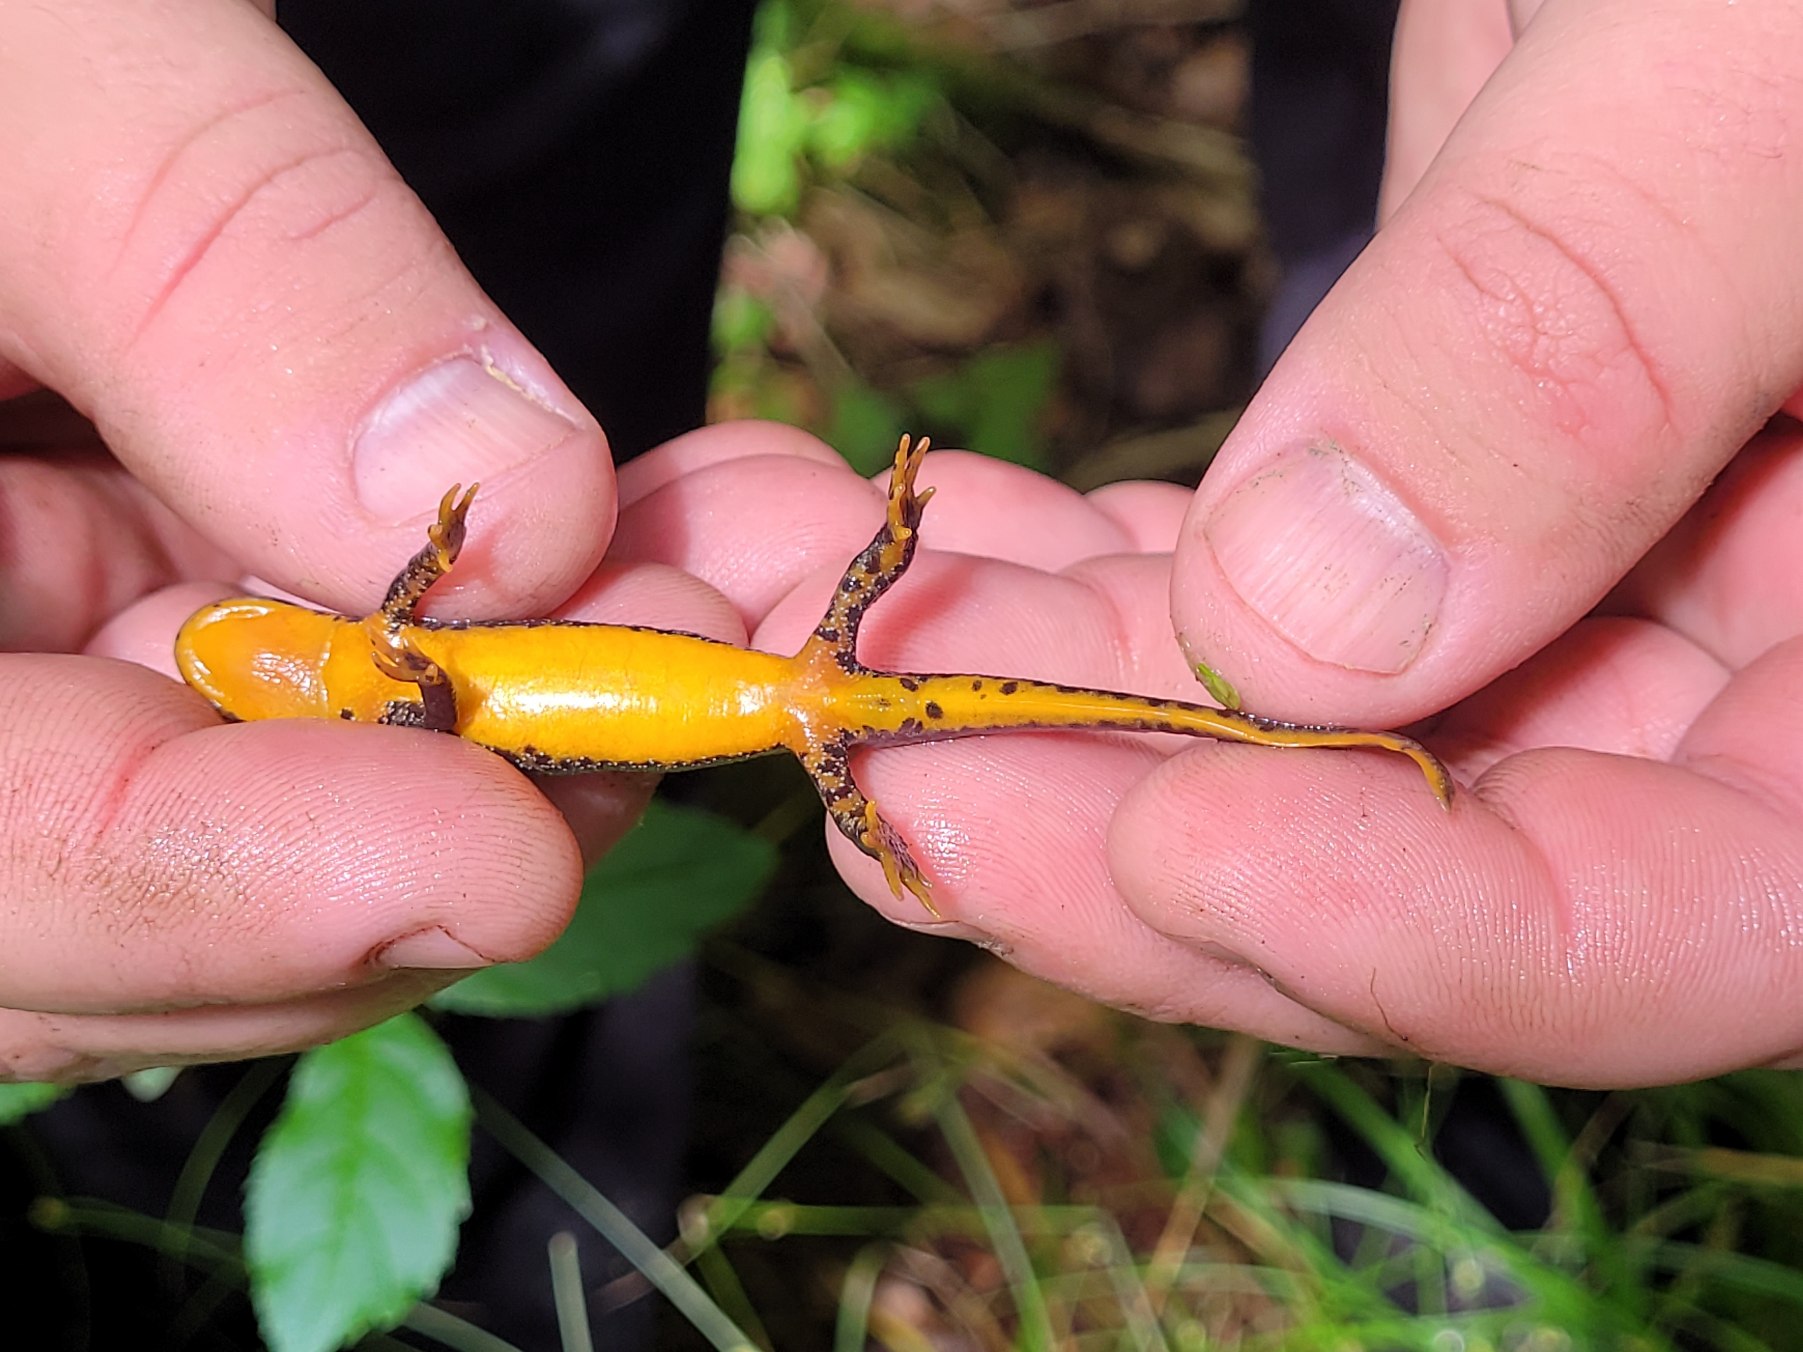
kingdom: Animalia
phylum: Chordata
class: Amphibia
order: Caudata
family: Salamandridae
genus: Ichthyosaura
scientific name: Ichthyosaura alpestris
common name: Bjergsalamander
